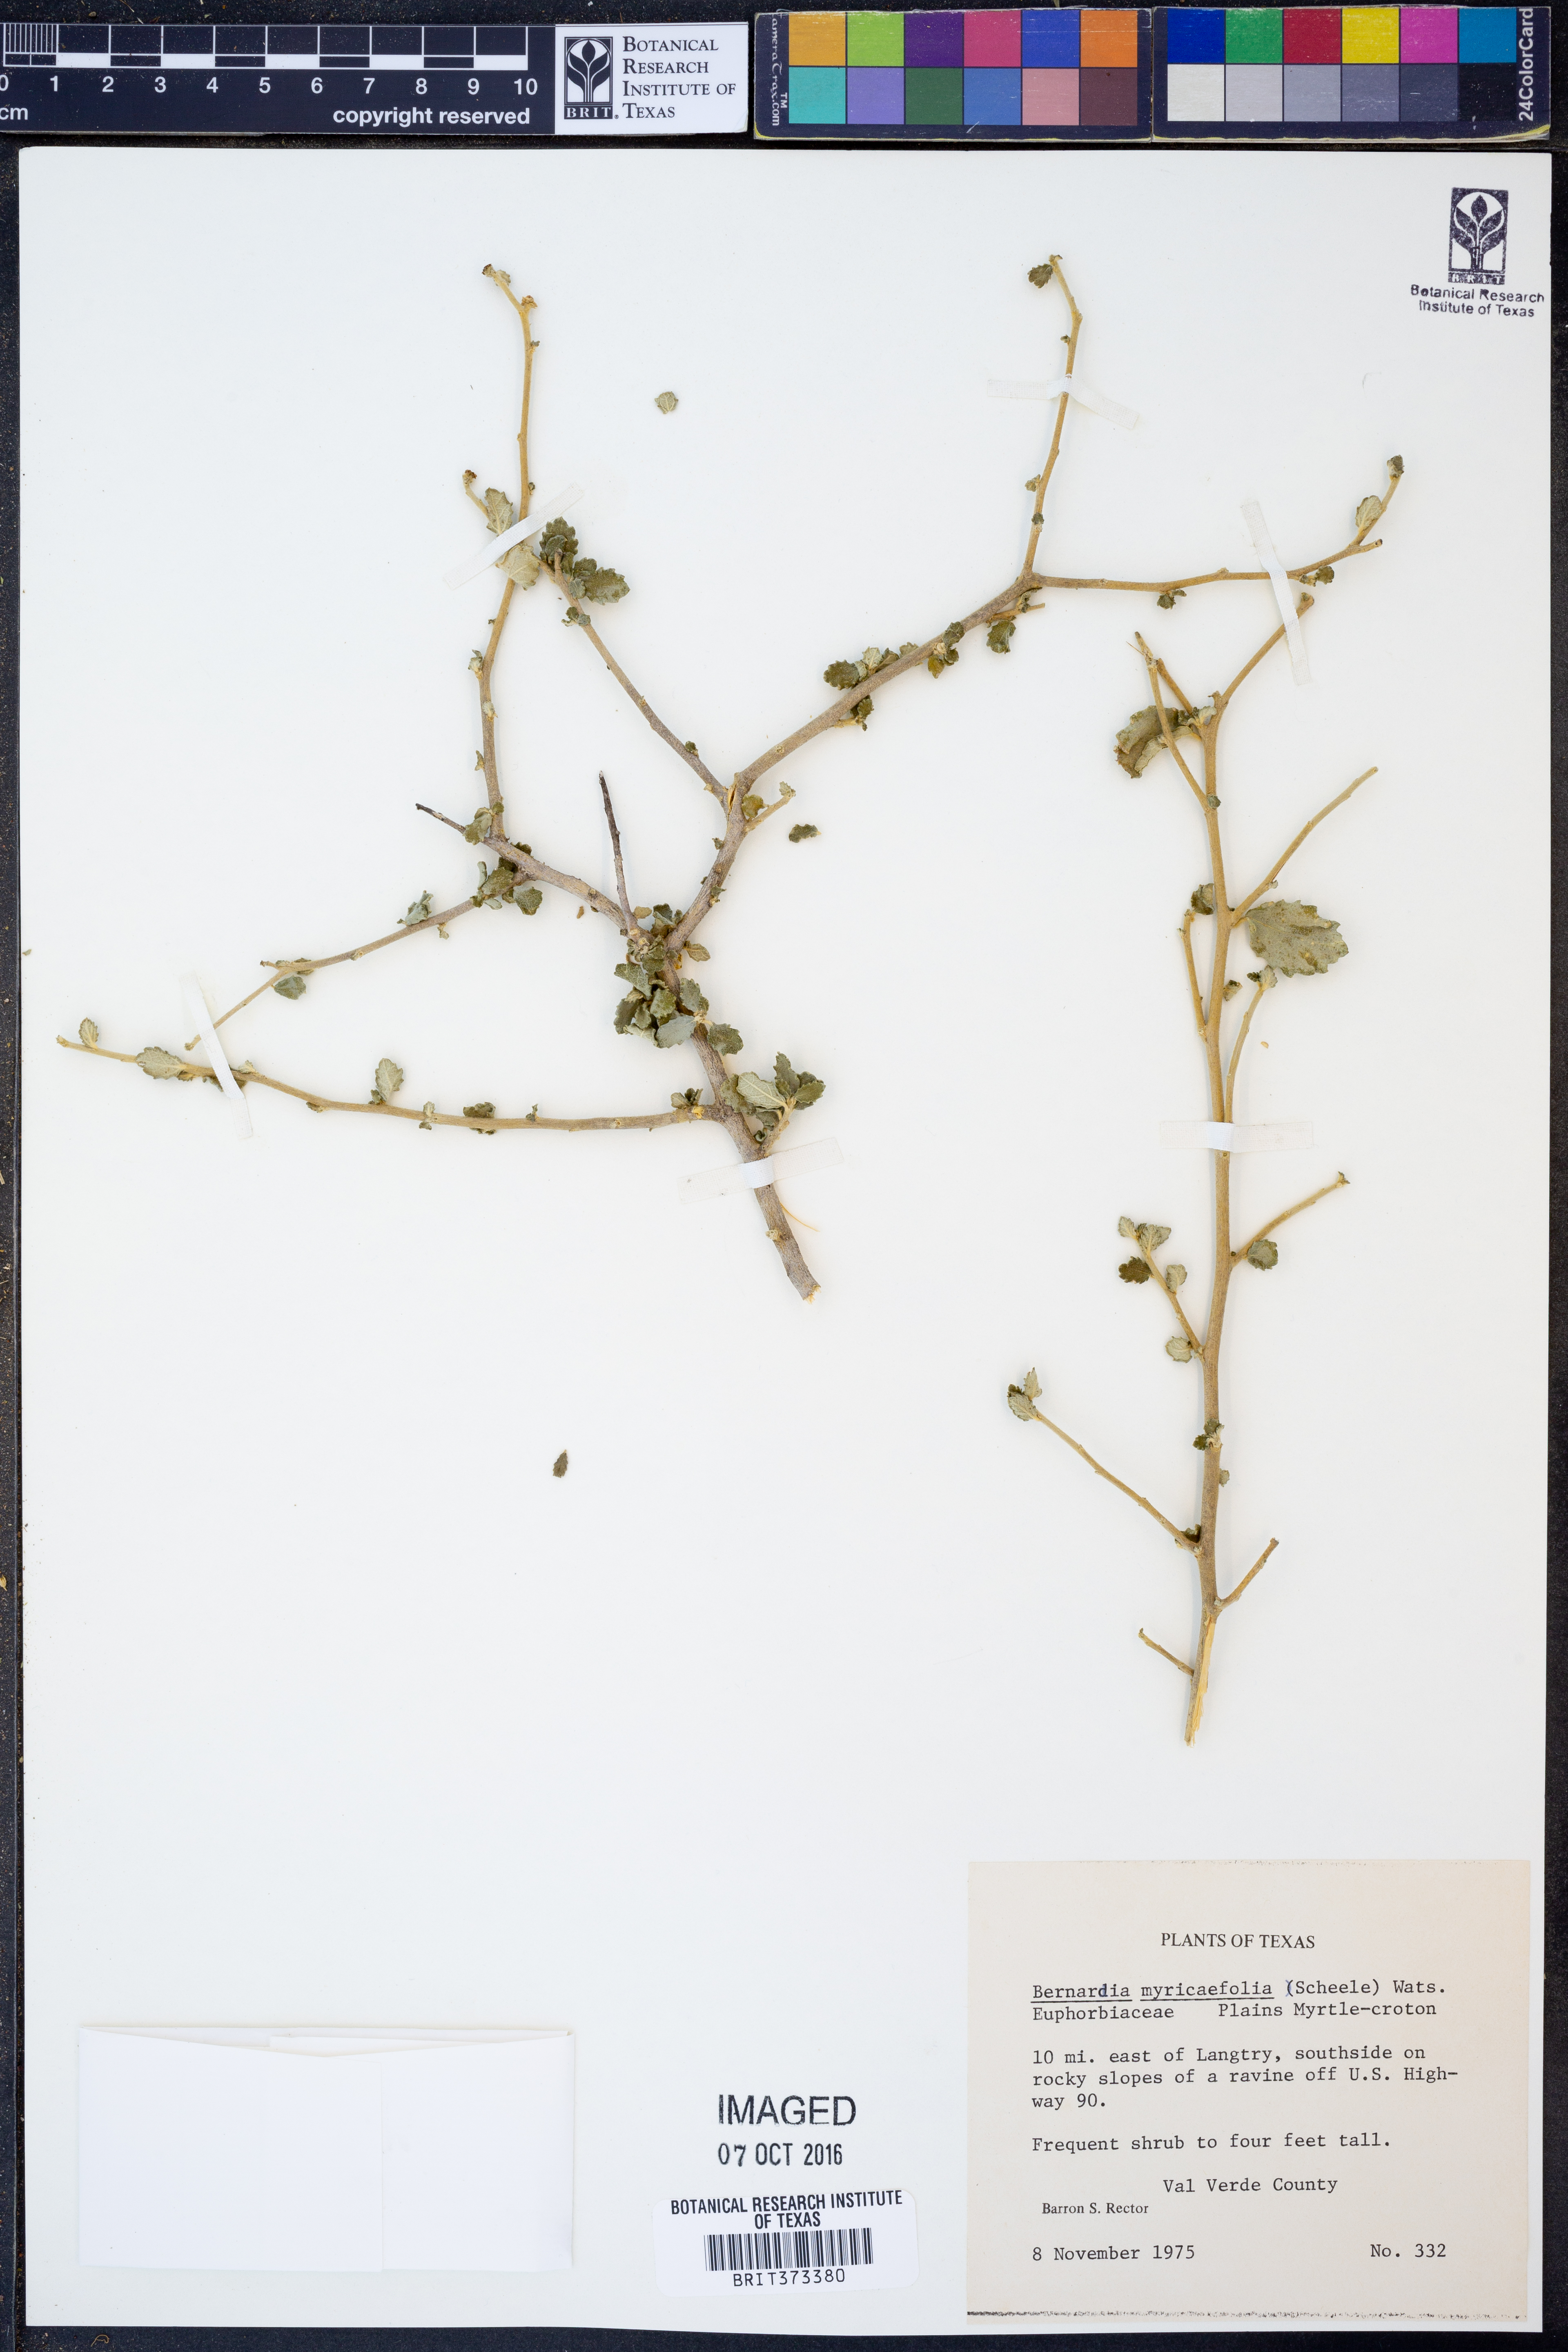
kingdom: Plantae
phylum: Tracheophyta
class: Magnoliopsida
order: Malpighiales
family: Euphorbiaceae
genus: Bernardia
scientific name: Bernardia myricifolia
